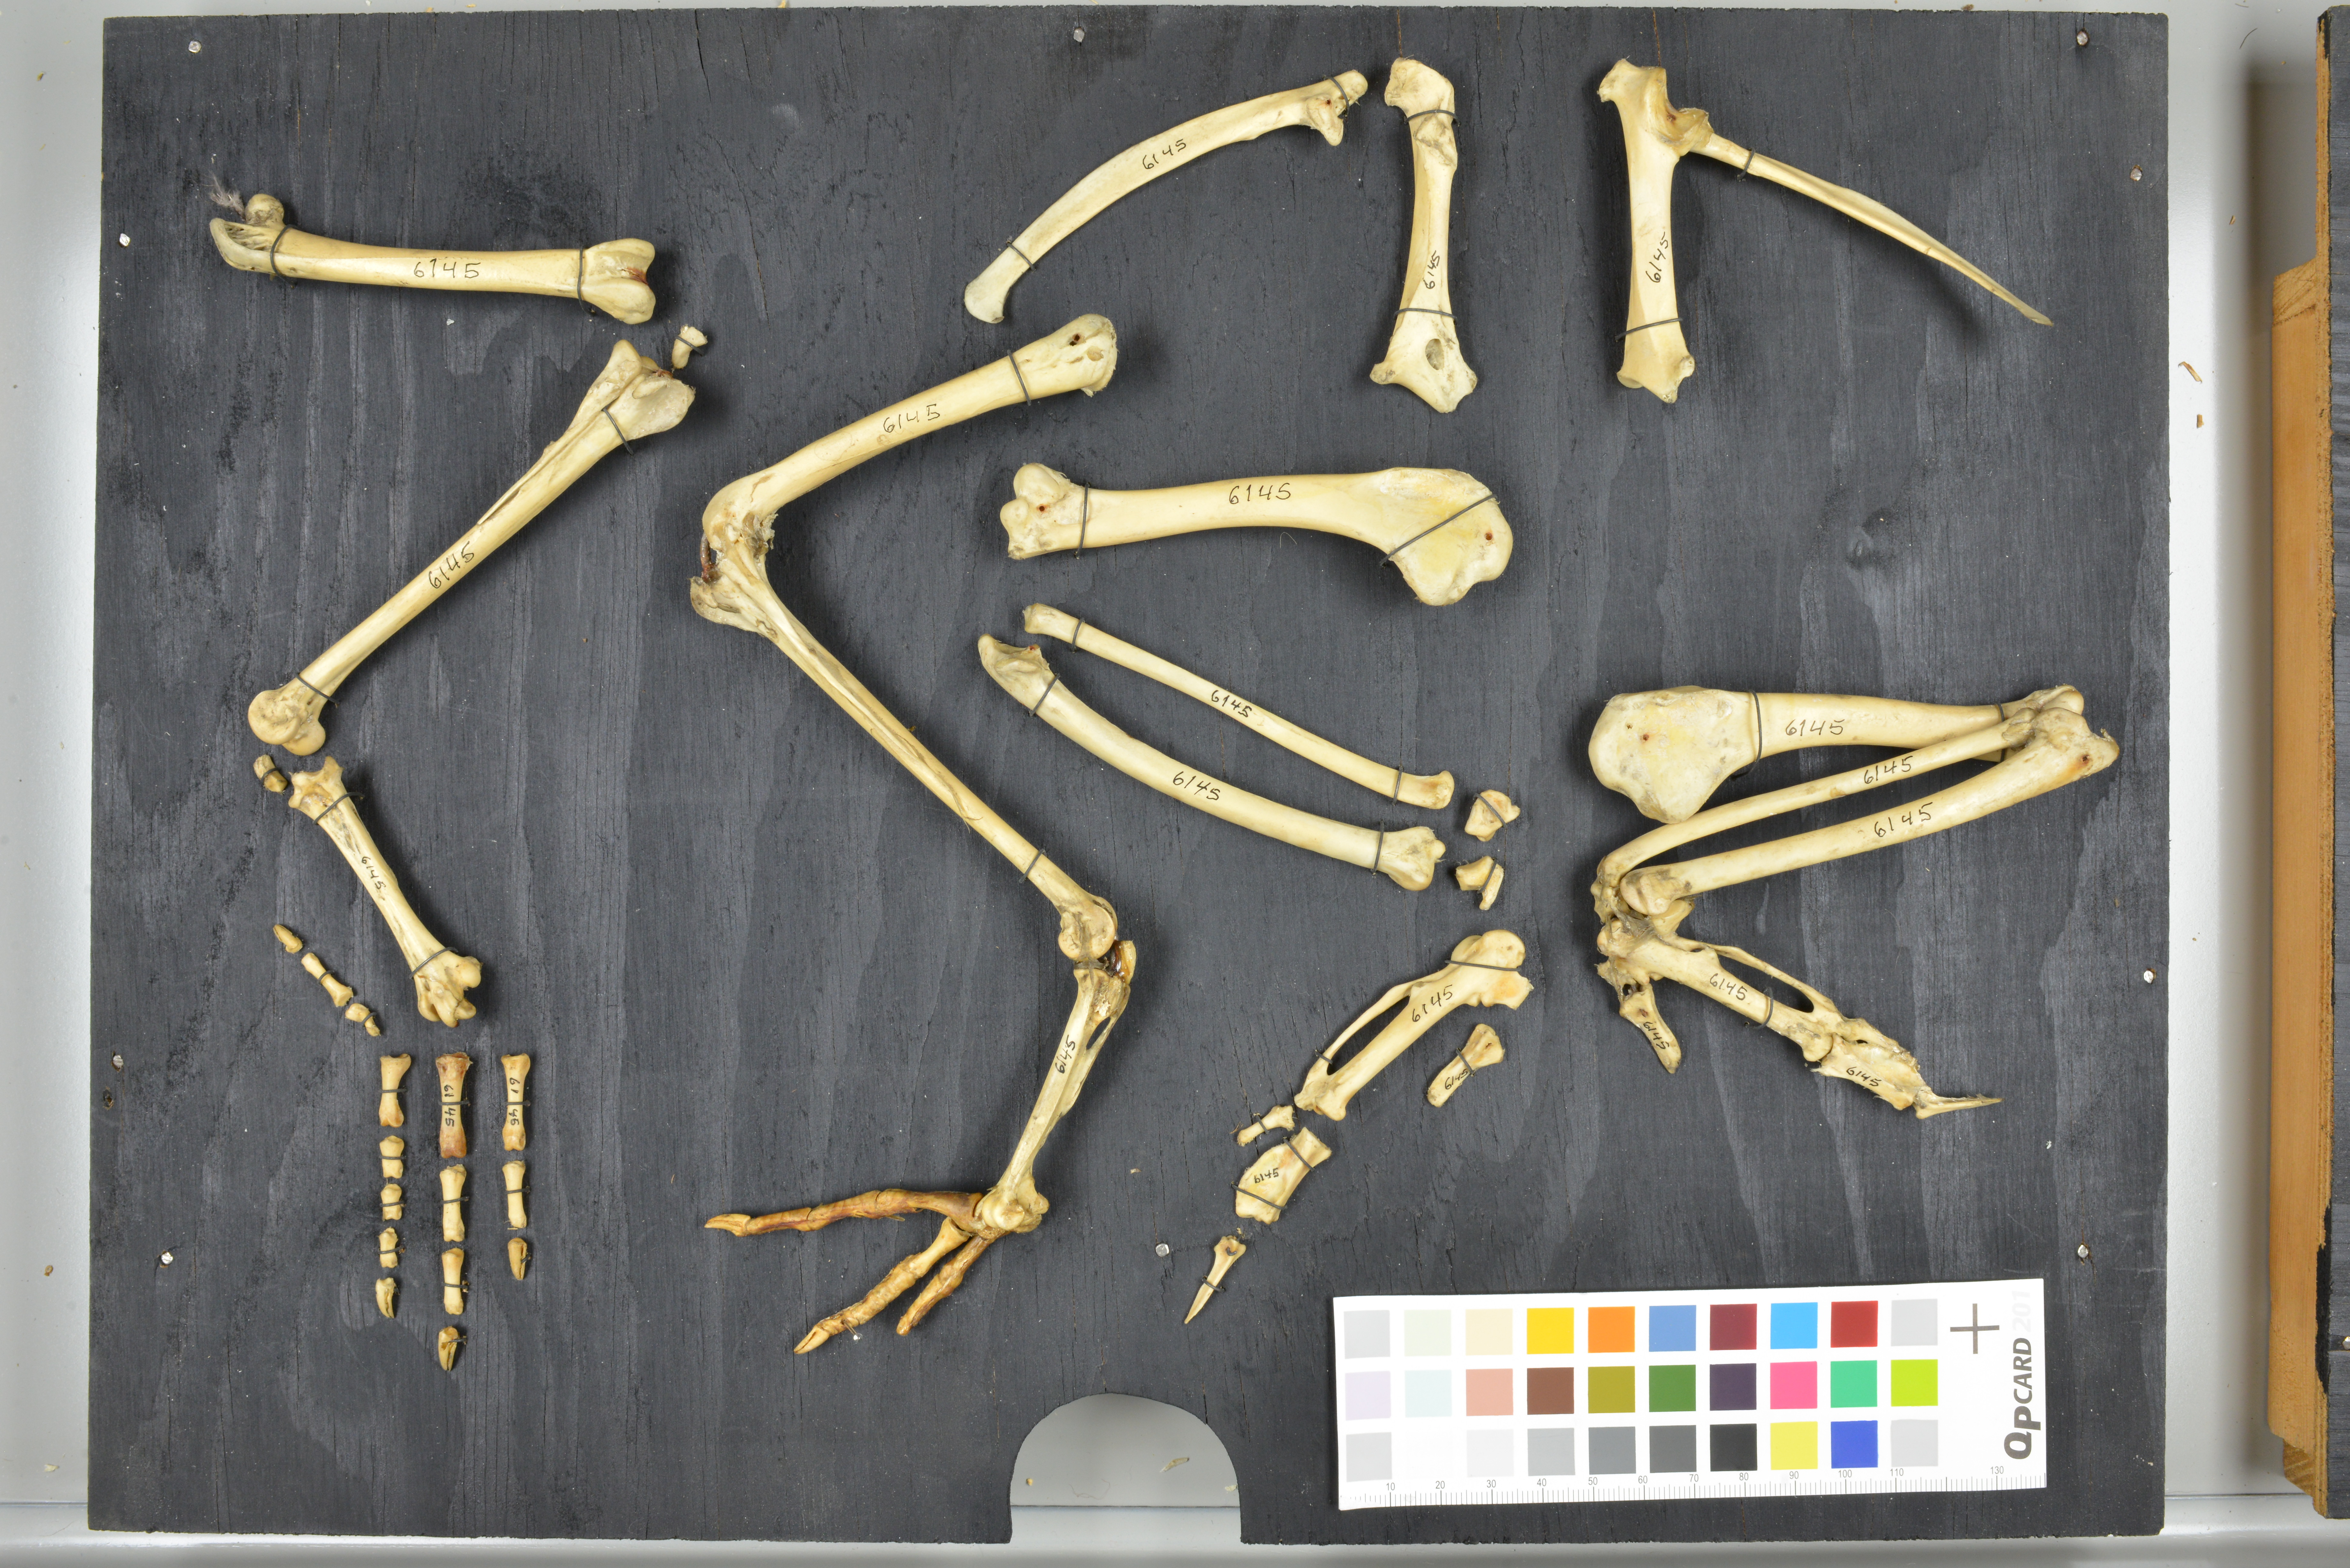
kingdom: Animalia
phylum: Chordata
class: Aves
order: Galliformes
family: Phasianidae
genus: Gallus
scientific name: Gallus gallus
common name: Red junglefowl
